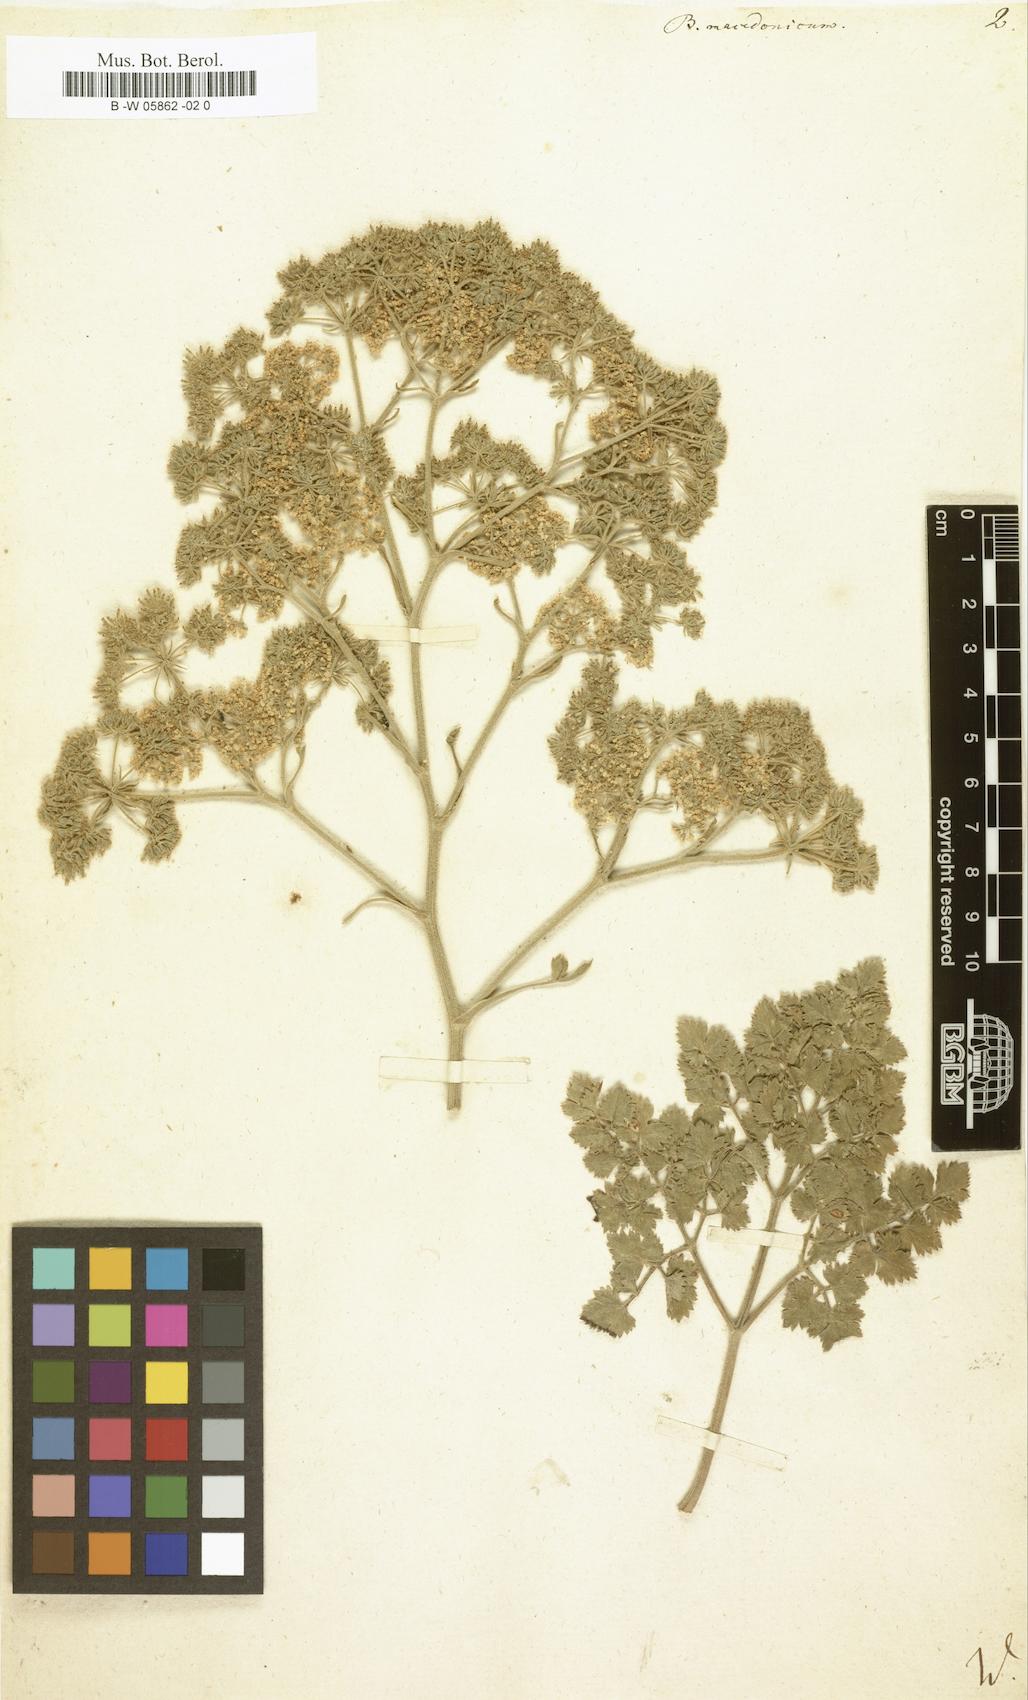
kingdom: Plantae
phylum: Tracheophyta
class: Magnoliopsida
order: Apiales
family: Apiaceae
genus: Bubon
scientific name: Bubon macedonicum
